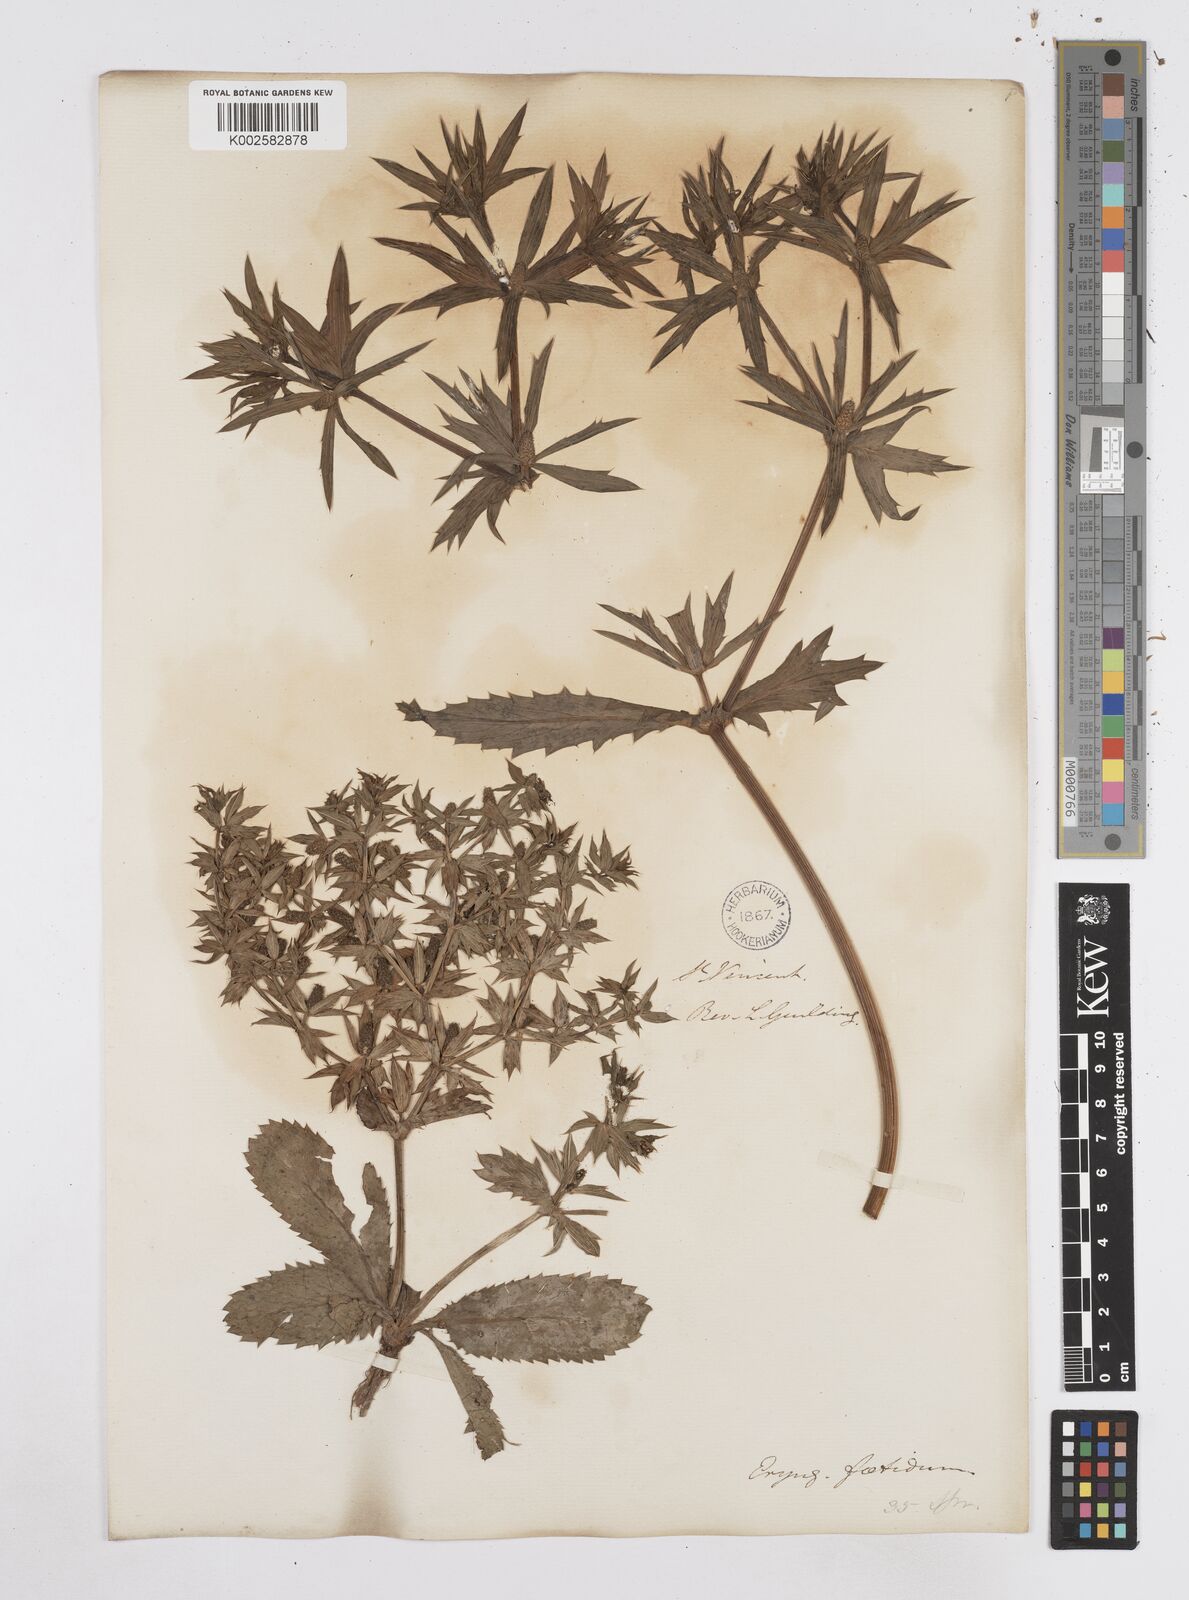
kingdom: Plantae
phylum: Tracheophyta
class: Magnoliopsida
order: Apiales
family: Apiaceae
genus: Eryngium
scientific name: Eryngium foetidum
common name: Fitweed
